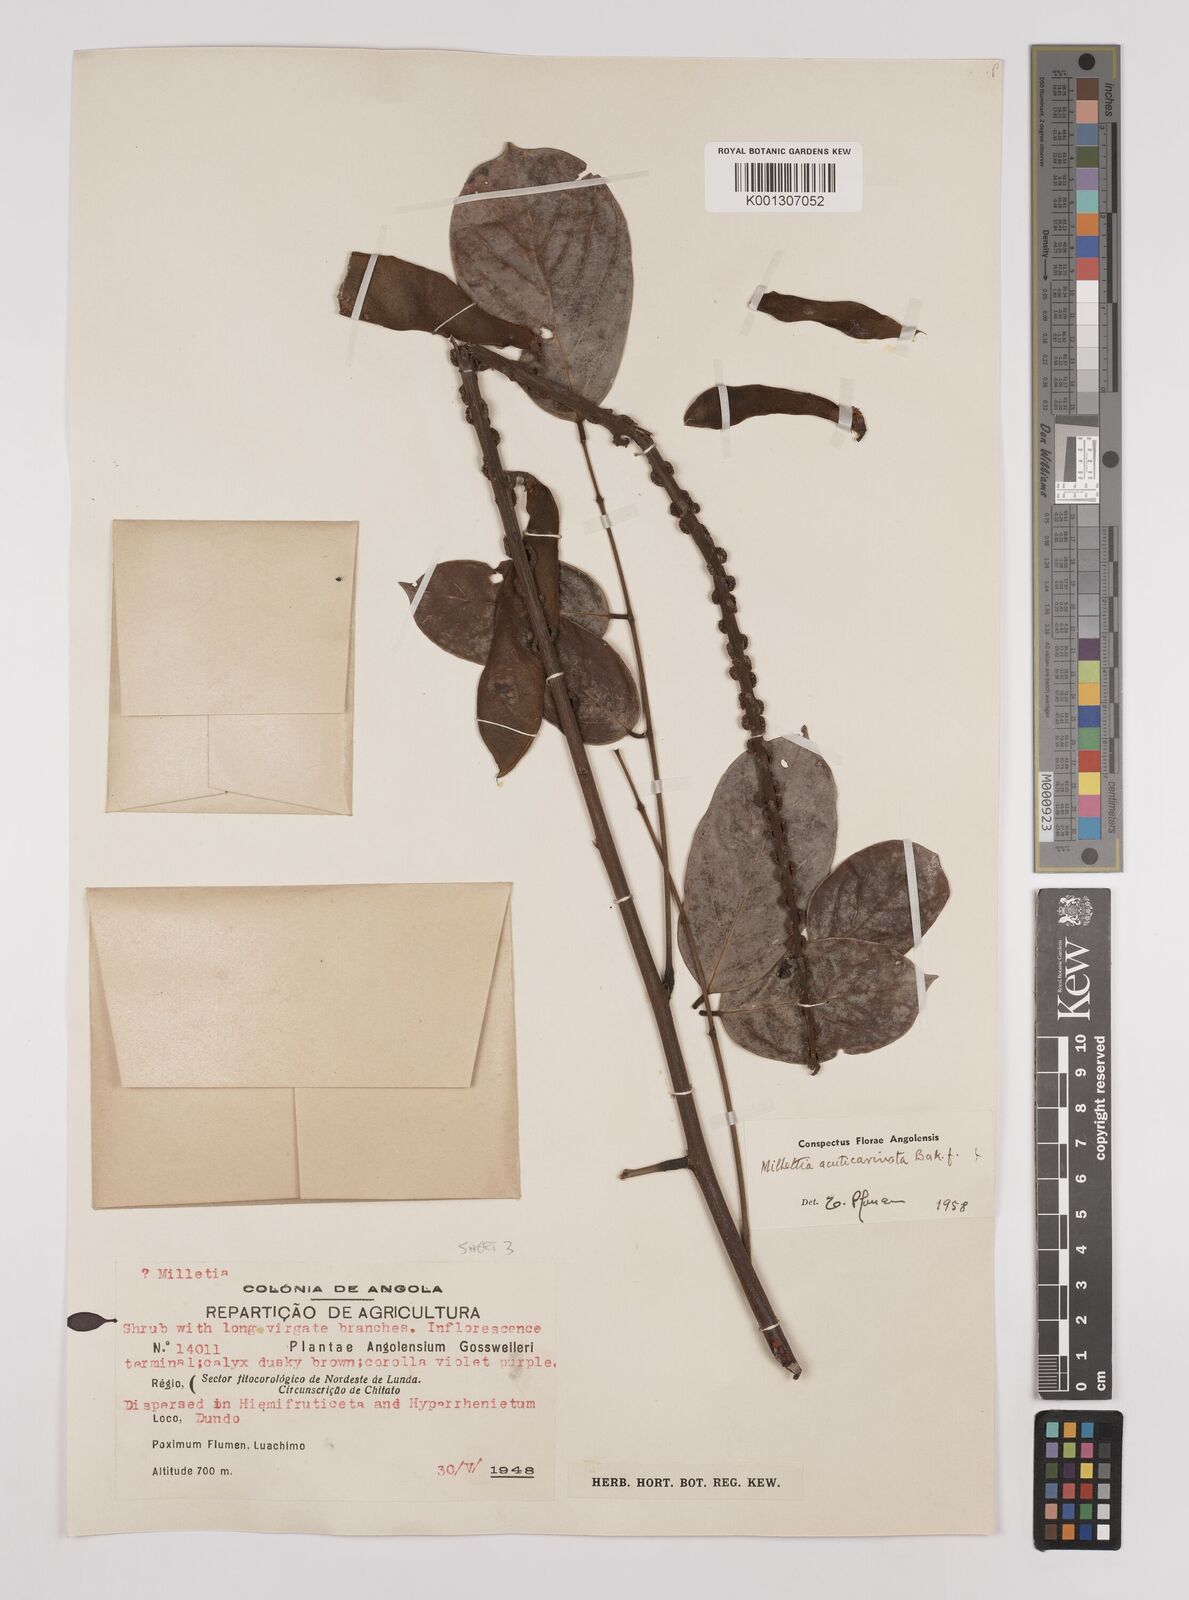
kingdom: Plantae
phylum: Tracheophyta
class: Magnoliopsida
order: Fabales
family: Fabaceae
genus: Millettia
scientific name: Millettia
